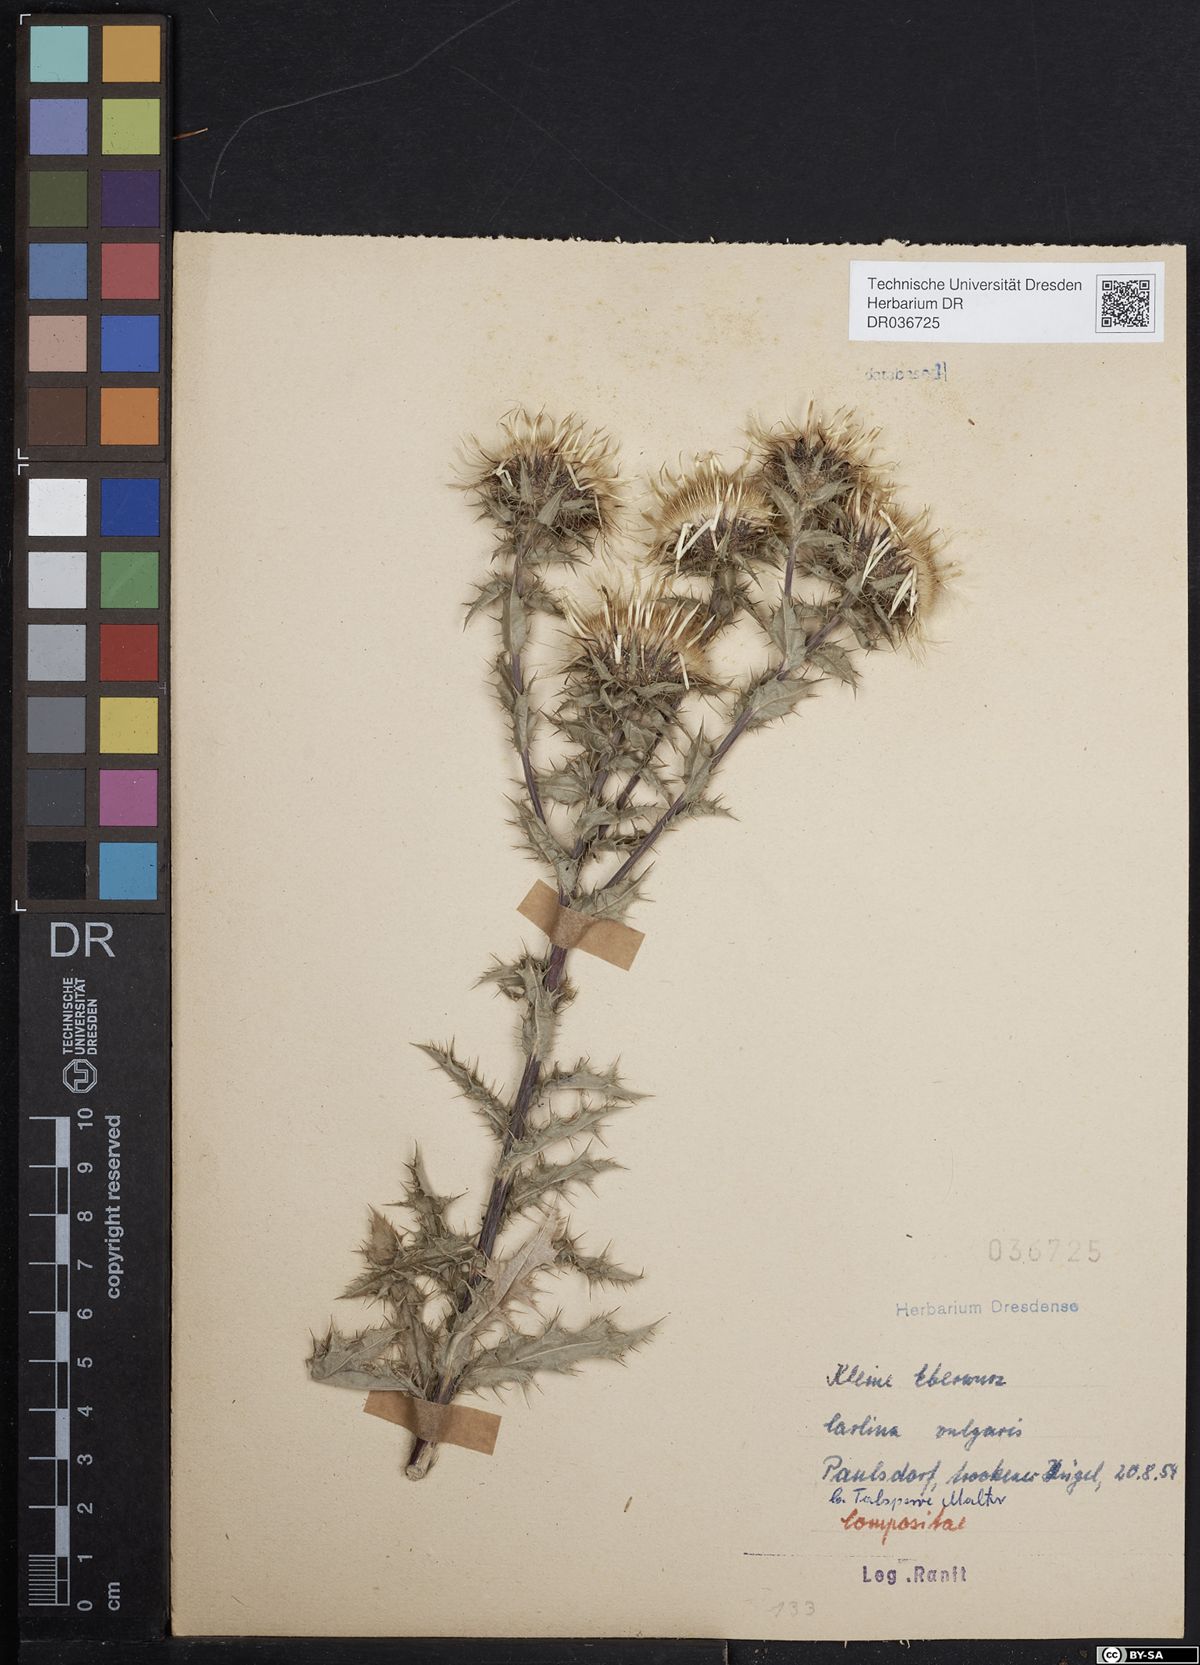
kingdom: Plantae
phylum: Tracheophyta
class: Magnoliopsida
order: Asterales
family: Asteraceae
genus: Carlina
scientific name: Carlina vulgaris
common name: Carline thistle
